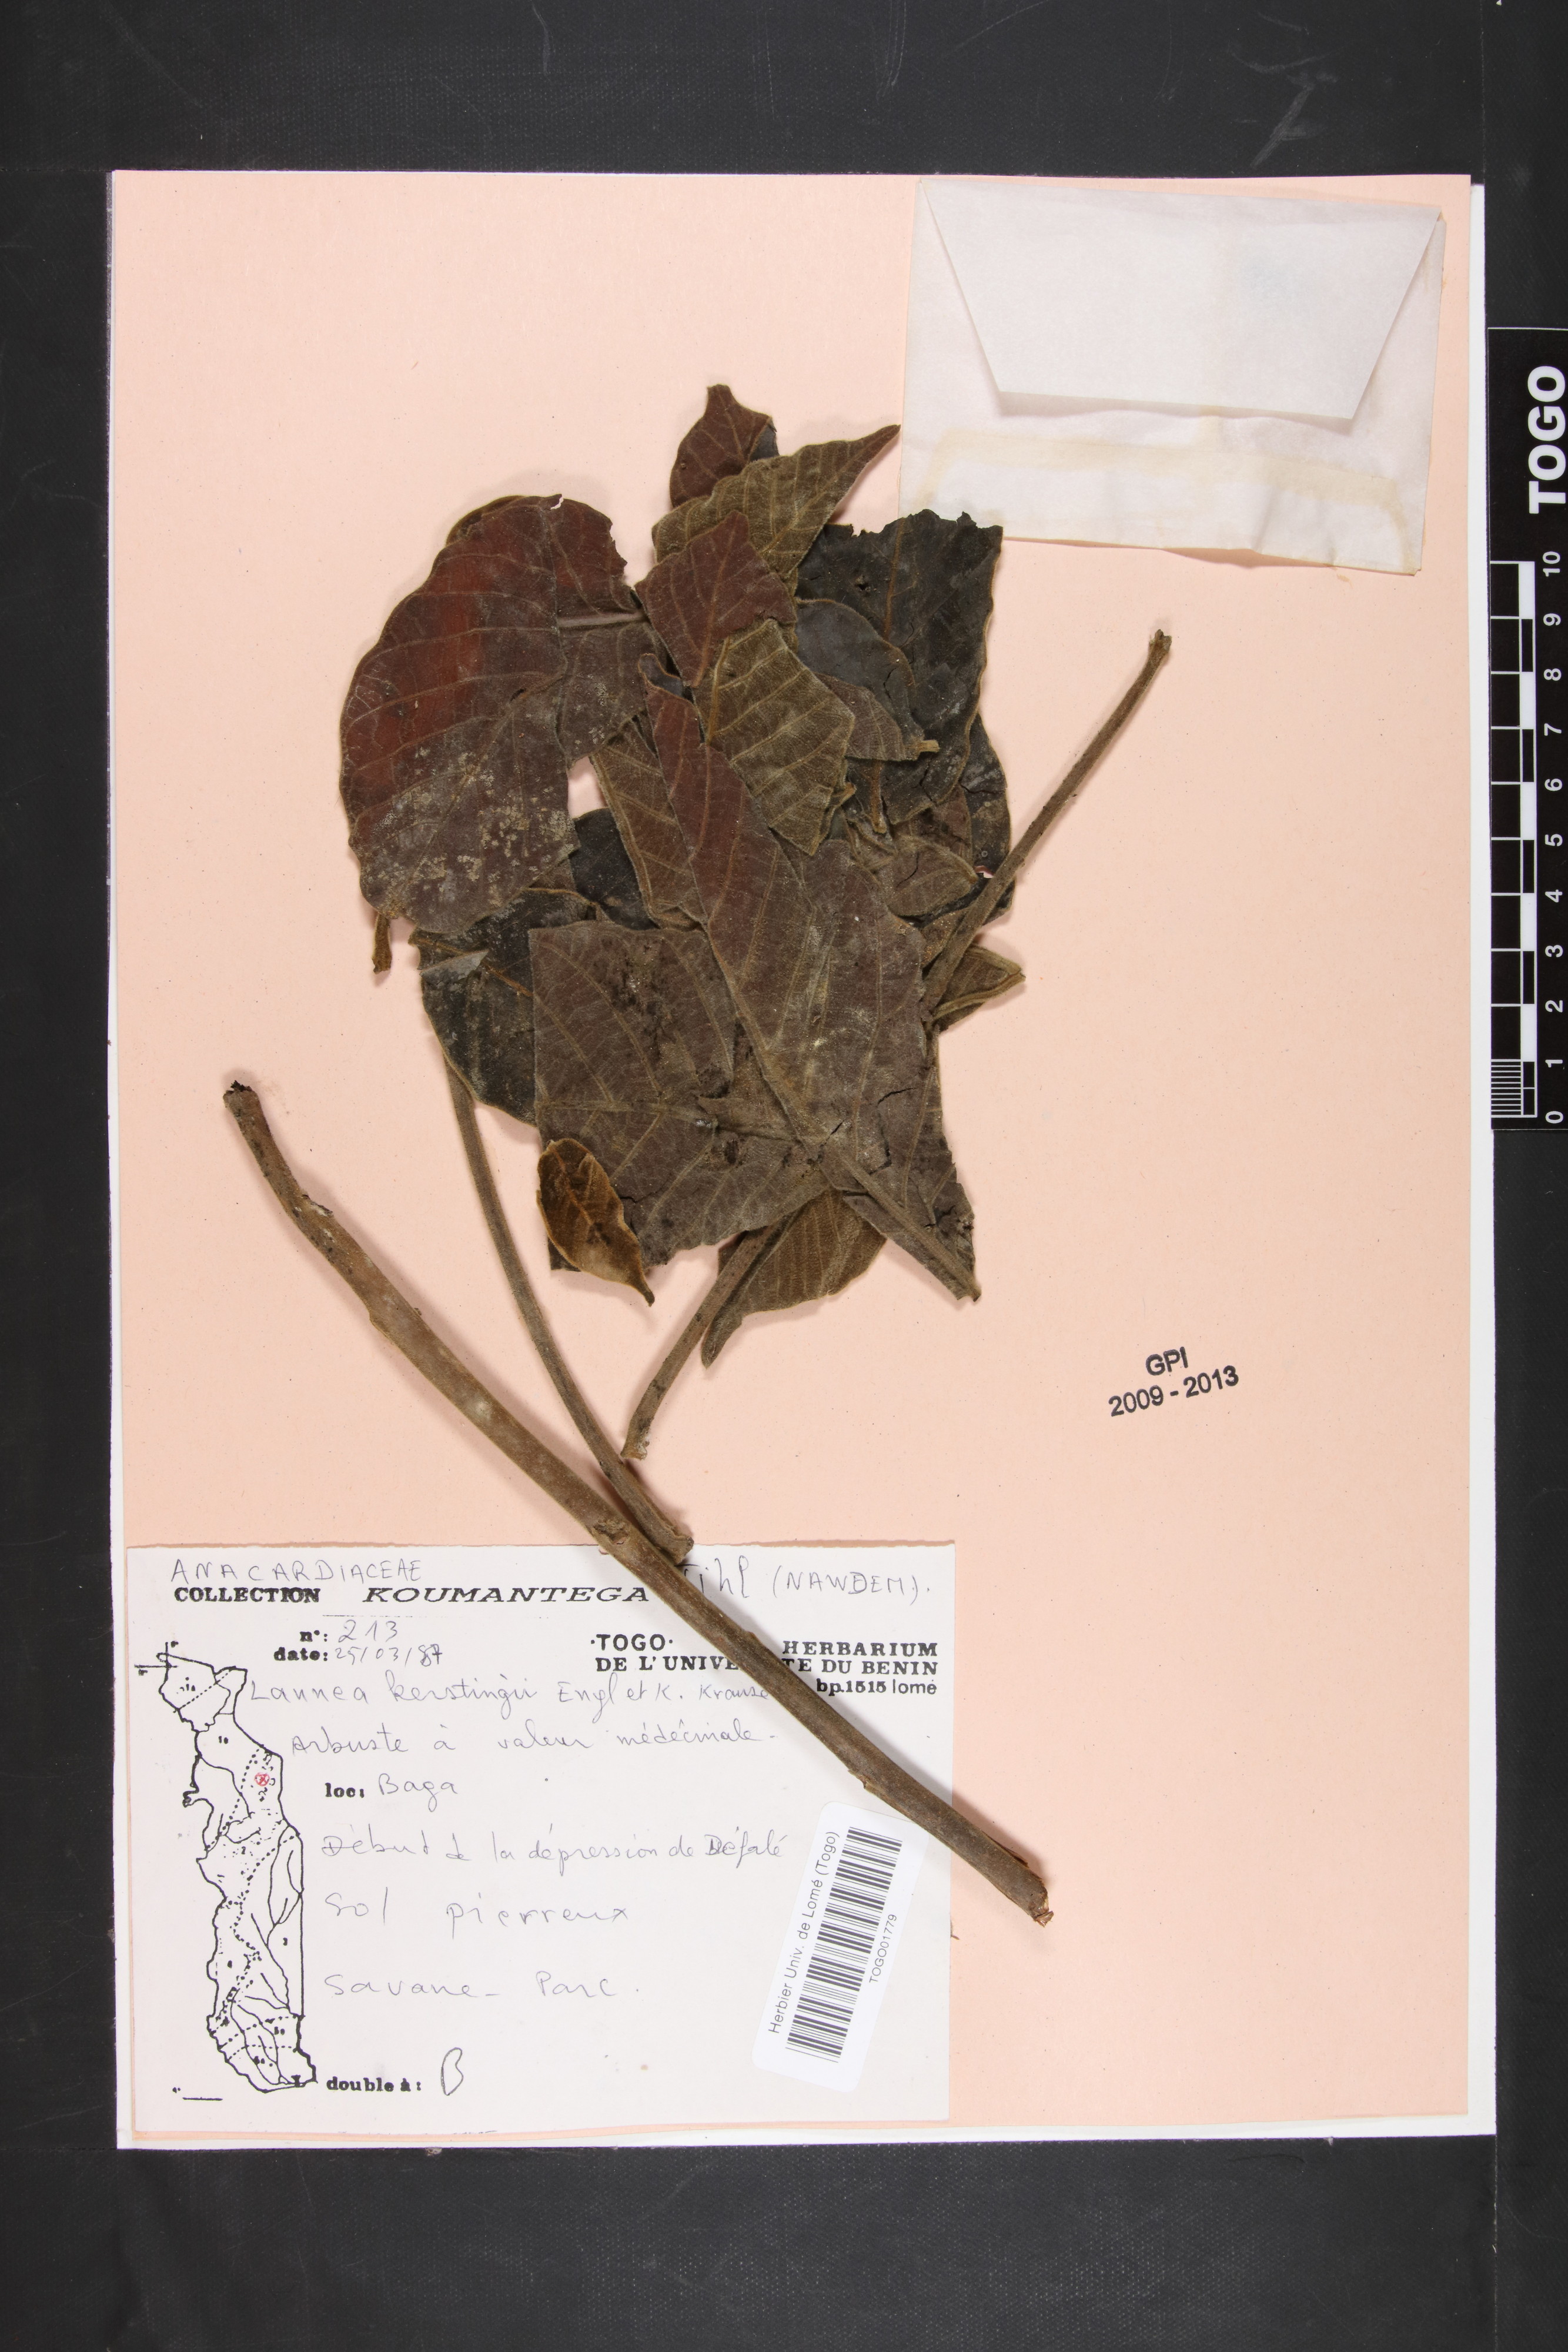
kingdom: Plantae
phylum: Tracheophyta
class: Magnoliopsida
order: Sapindales
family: Anacardiaceae
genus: Lannea
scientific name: Lannea barteri
